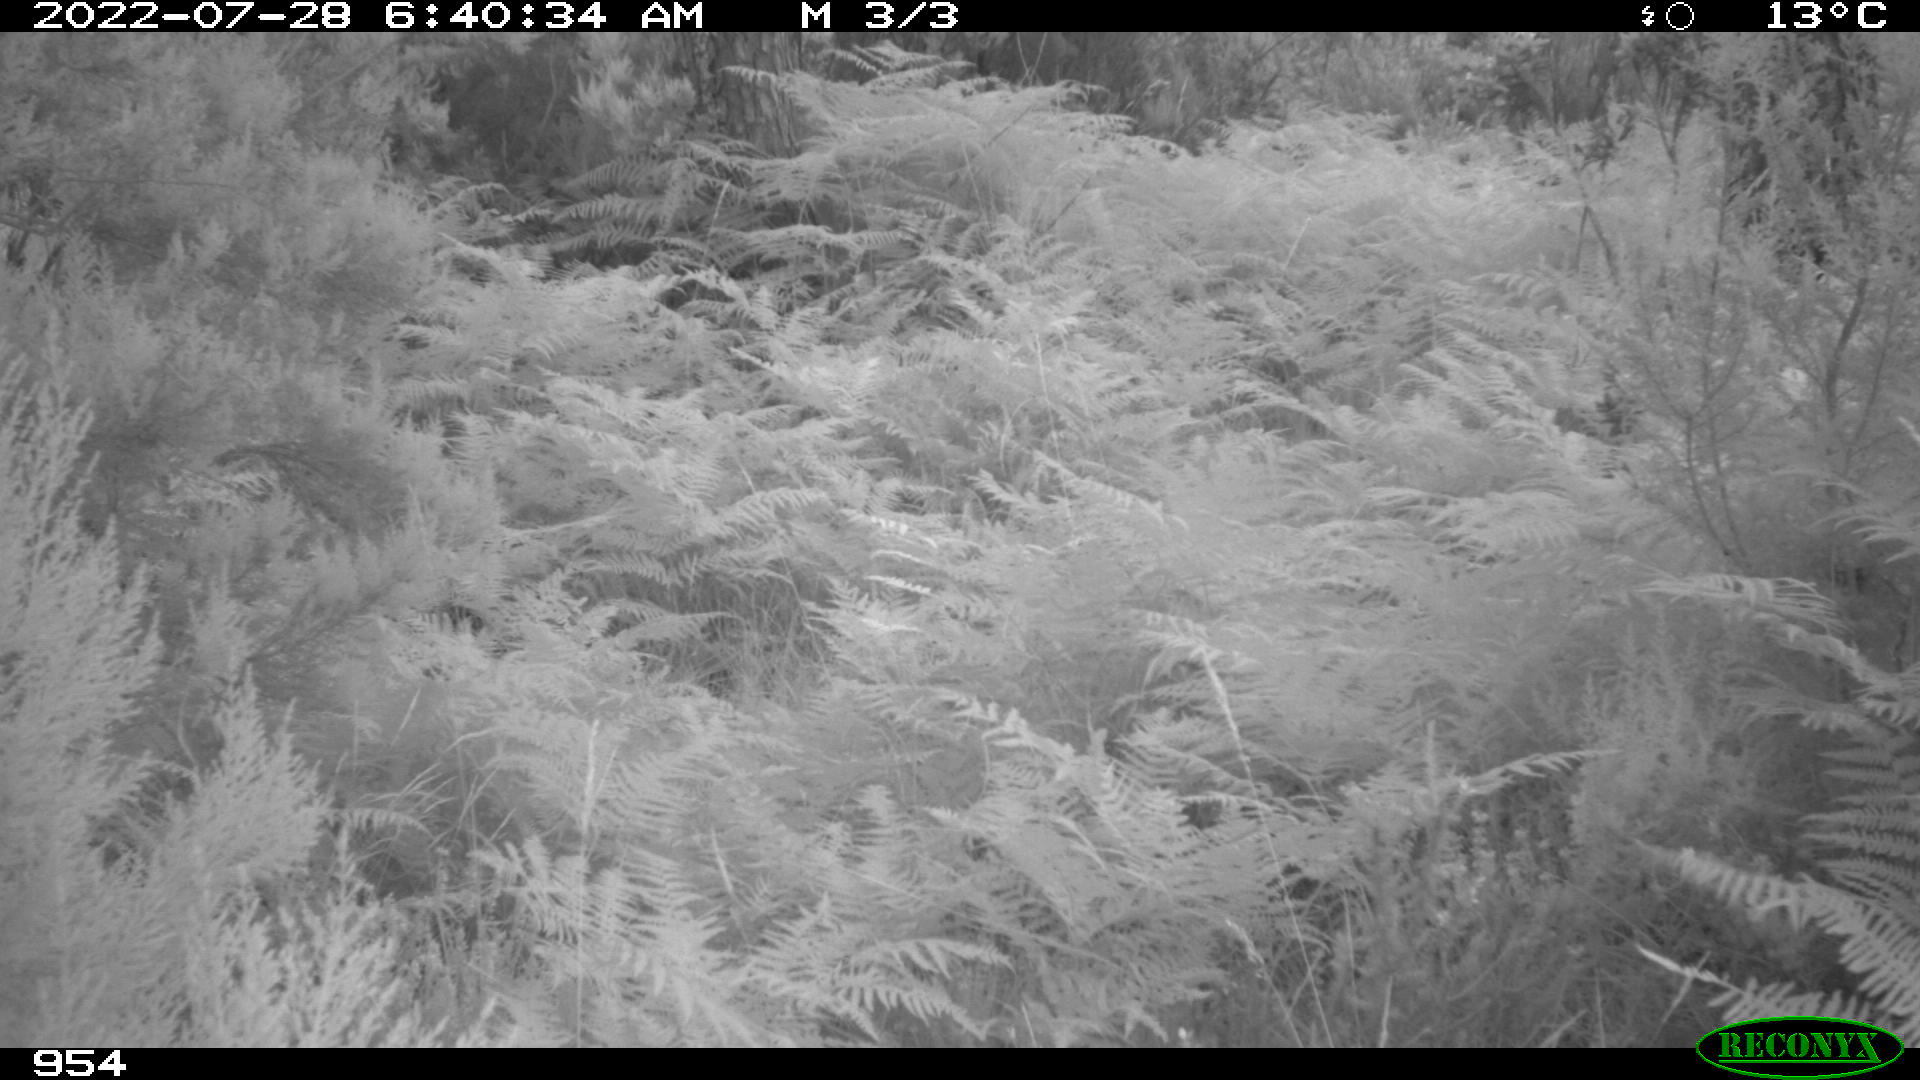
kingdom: Animalia
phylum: Chordata
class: Mammalia
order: Artiodactyla
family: Cervidae
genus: Capreolus
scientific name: Capreolus capreolus
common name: Western roe deer
